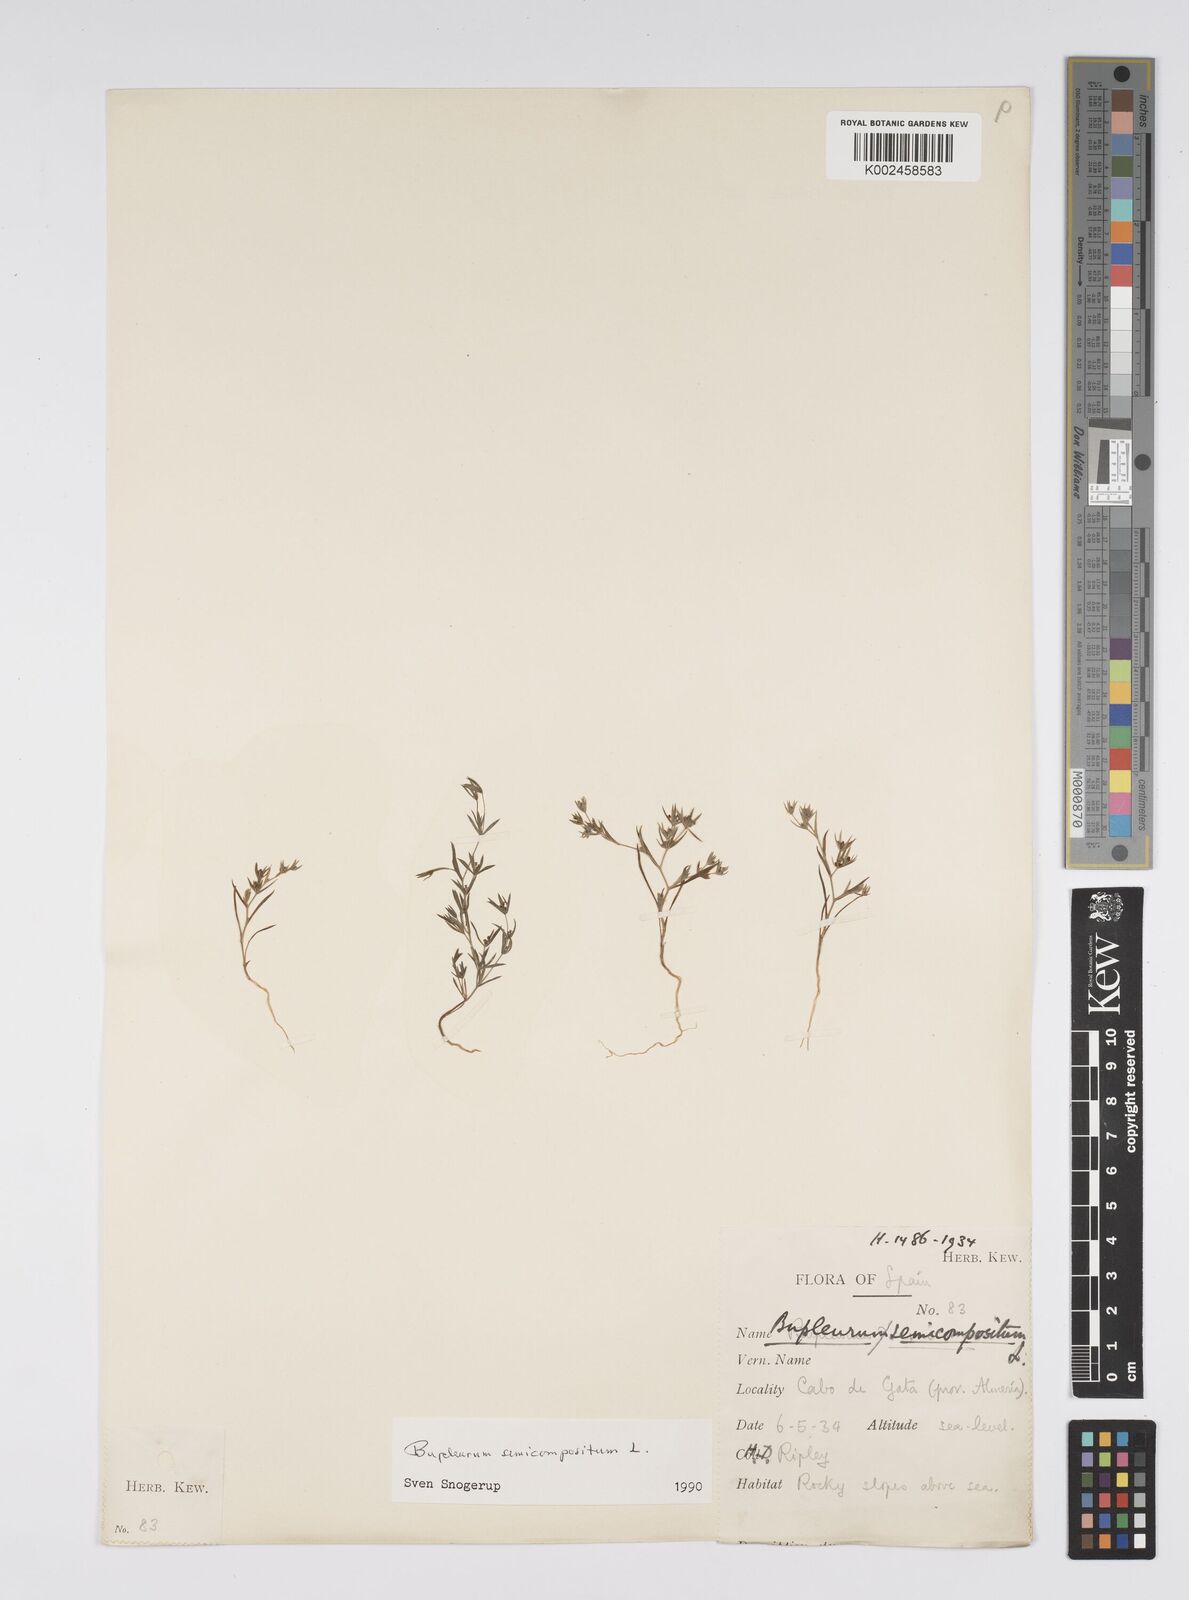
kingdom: Plantae
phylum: Tracheophyta
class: Magnoliopsida
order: Apiales
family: Apiaceae
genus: Bupleurum
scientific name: Bupleurum semicompositum
